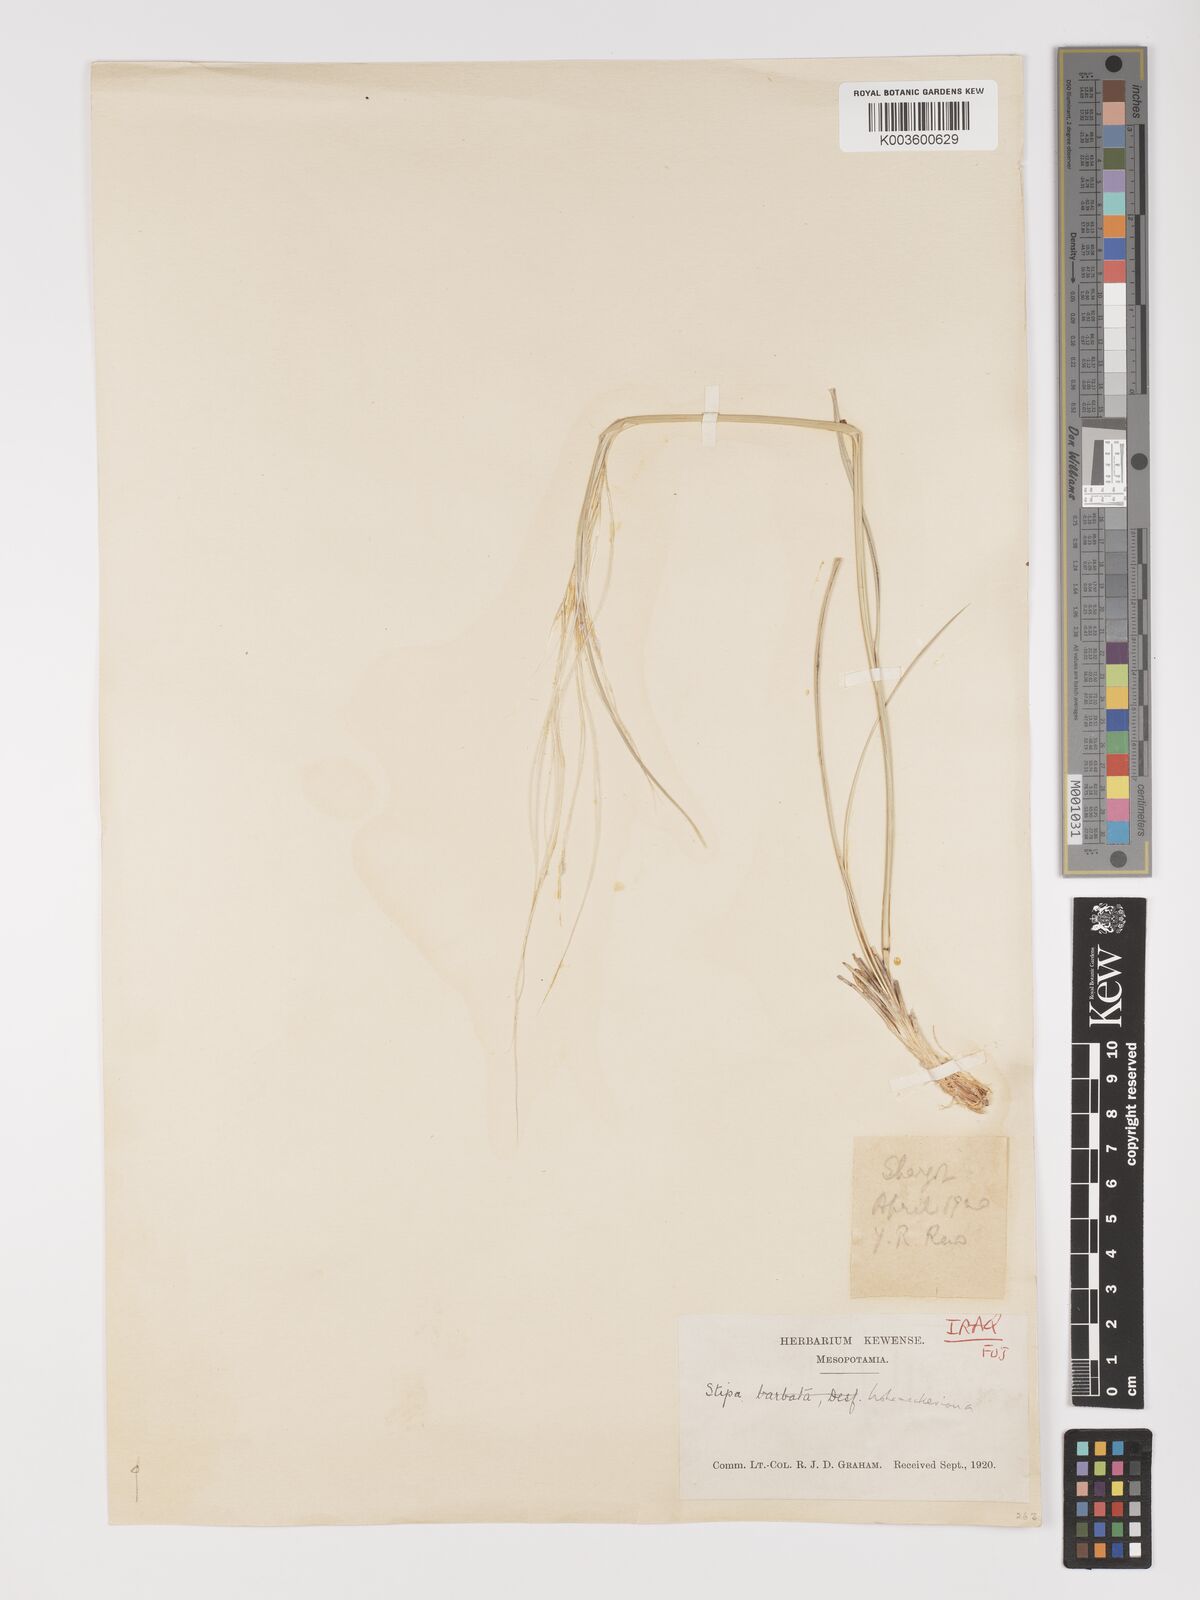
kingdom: Plantae
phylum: Tracheophyta
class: Liliopsida
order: Poales
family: Poaceae
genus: Stipa
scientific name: Stipa hohenackeriana
